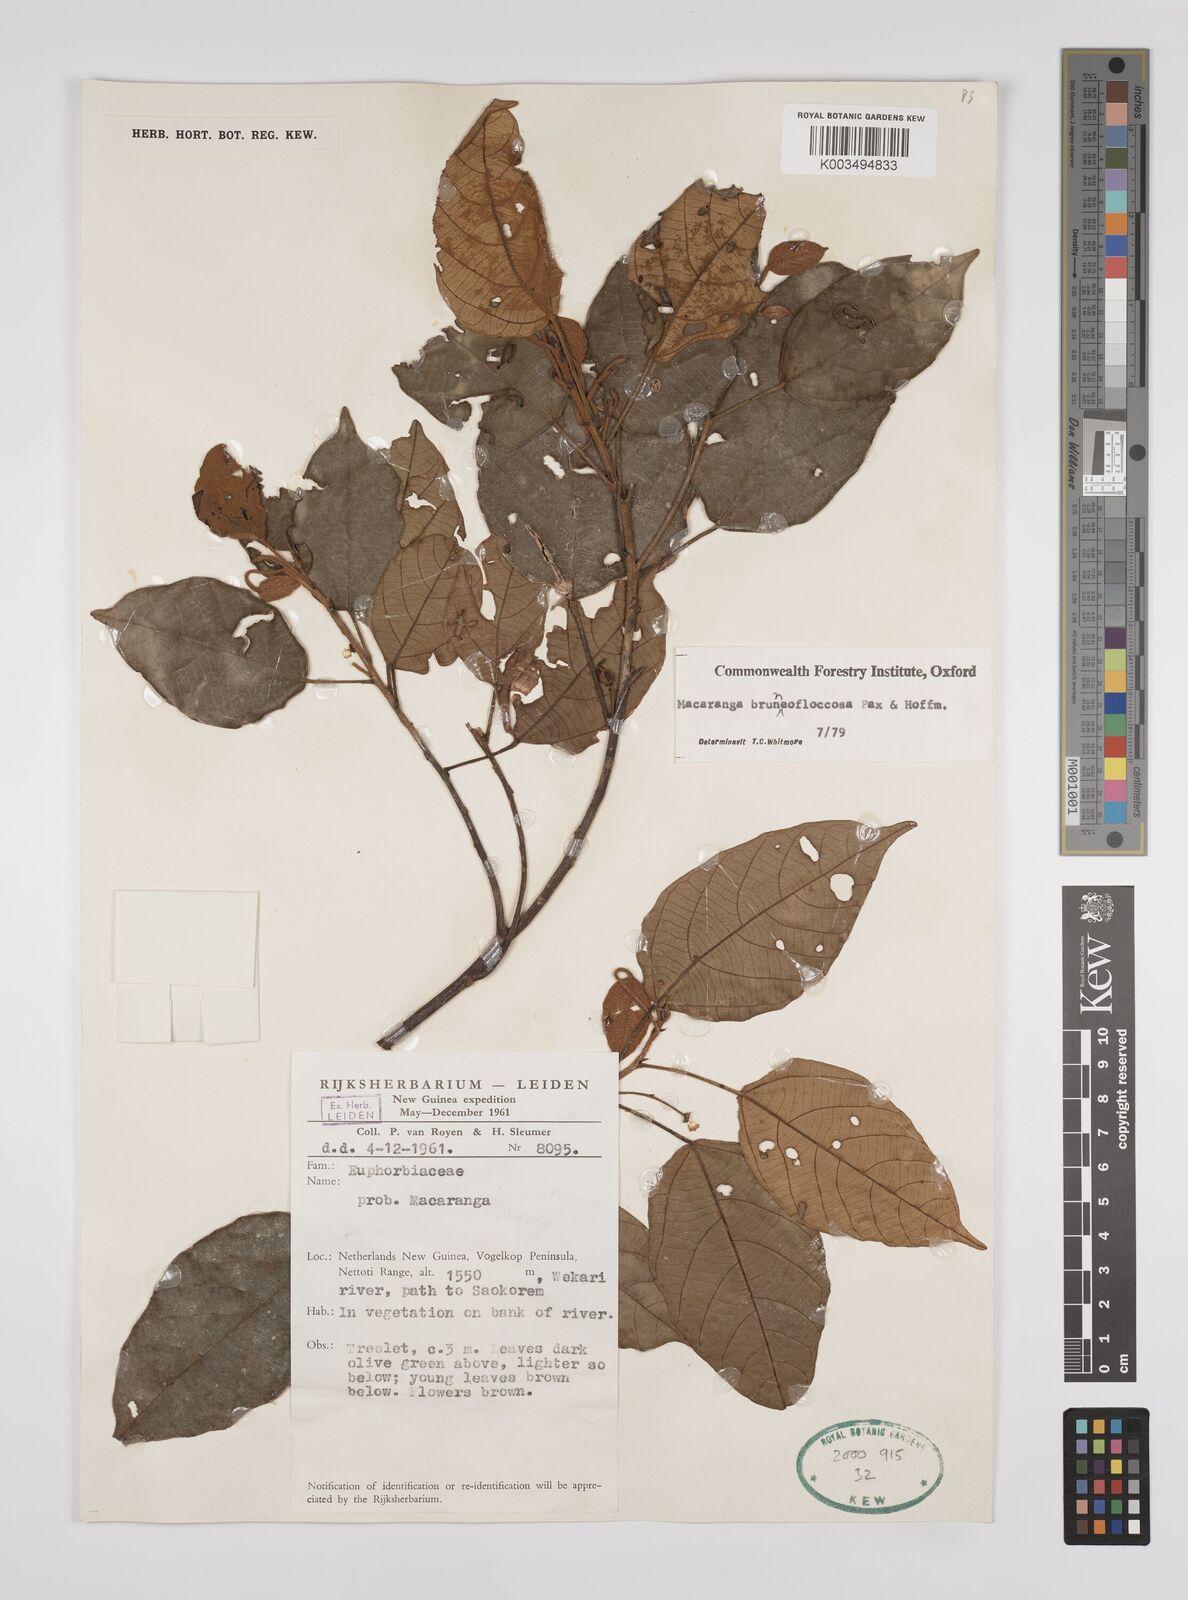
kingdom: Plantae
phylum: Tracheophyta
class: Magnoliopsida
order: Malpighiales
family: Euphorbiaceae
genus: Macaranga
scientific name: Macaranga brunneofloccosa
